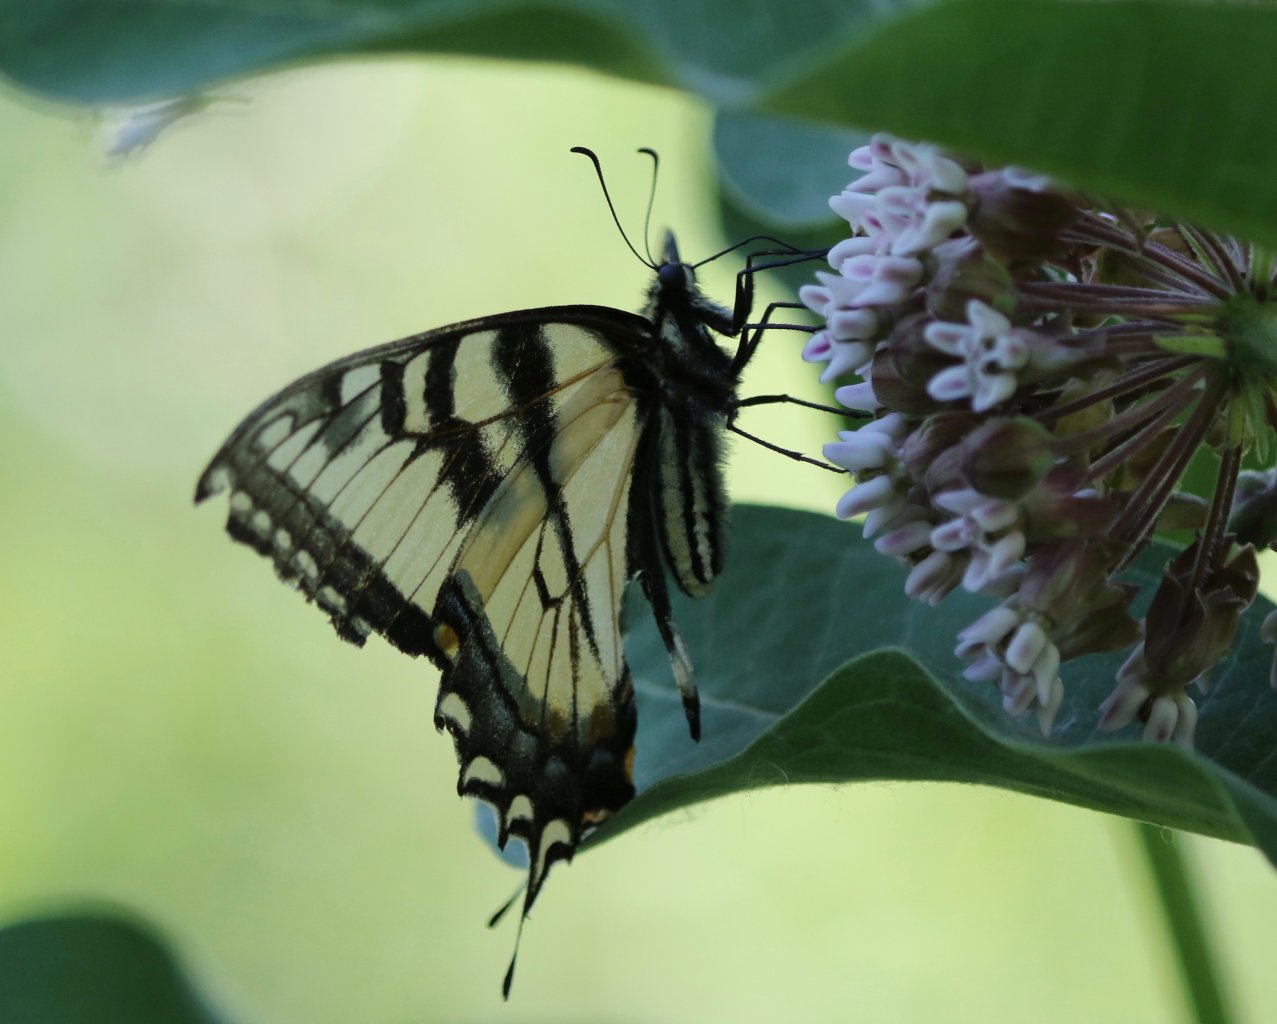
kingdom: Animalia
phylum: Arthropoda
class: Insecta
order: Lepidoptera
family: Papilionidae
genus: Pterourus
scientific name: Pterourus glaucus
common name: Eastern Tiger Swallowtail
